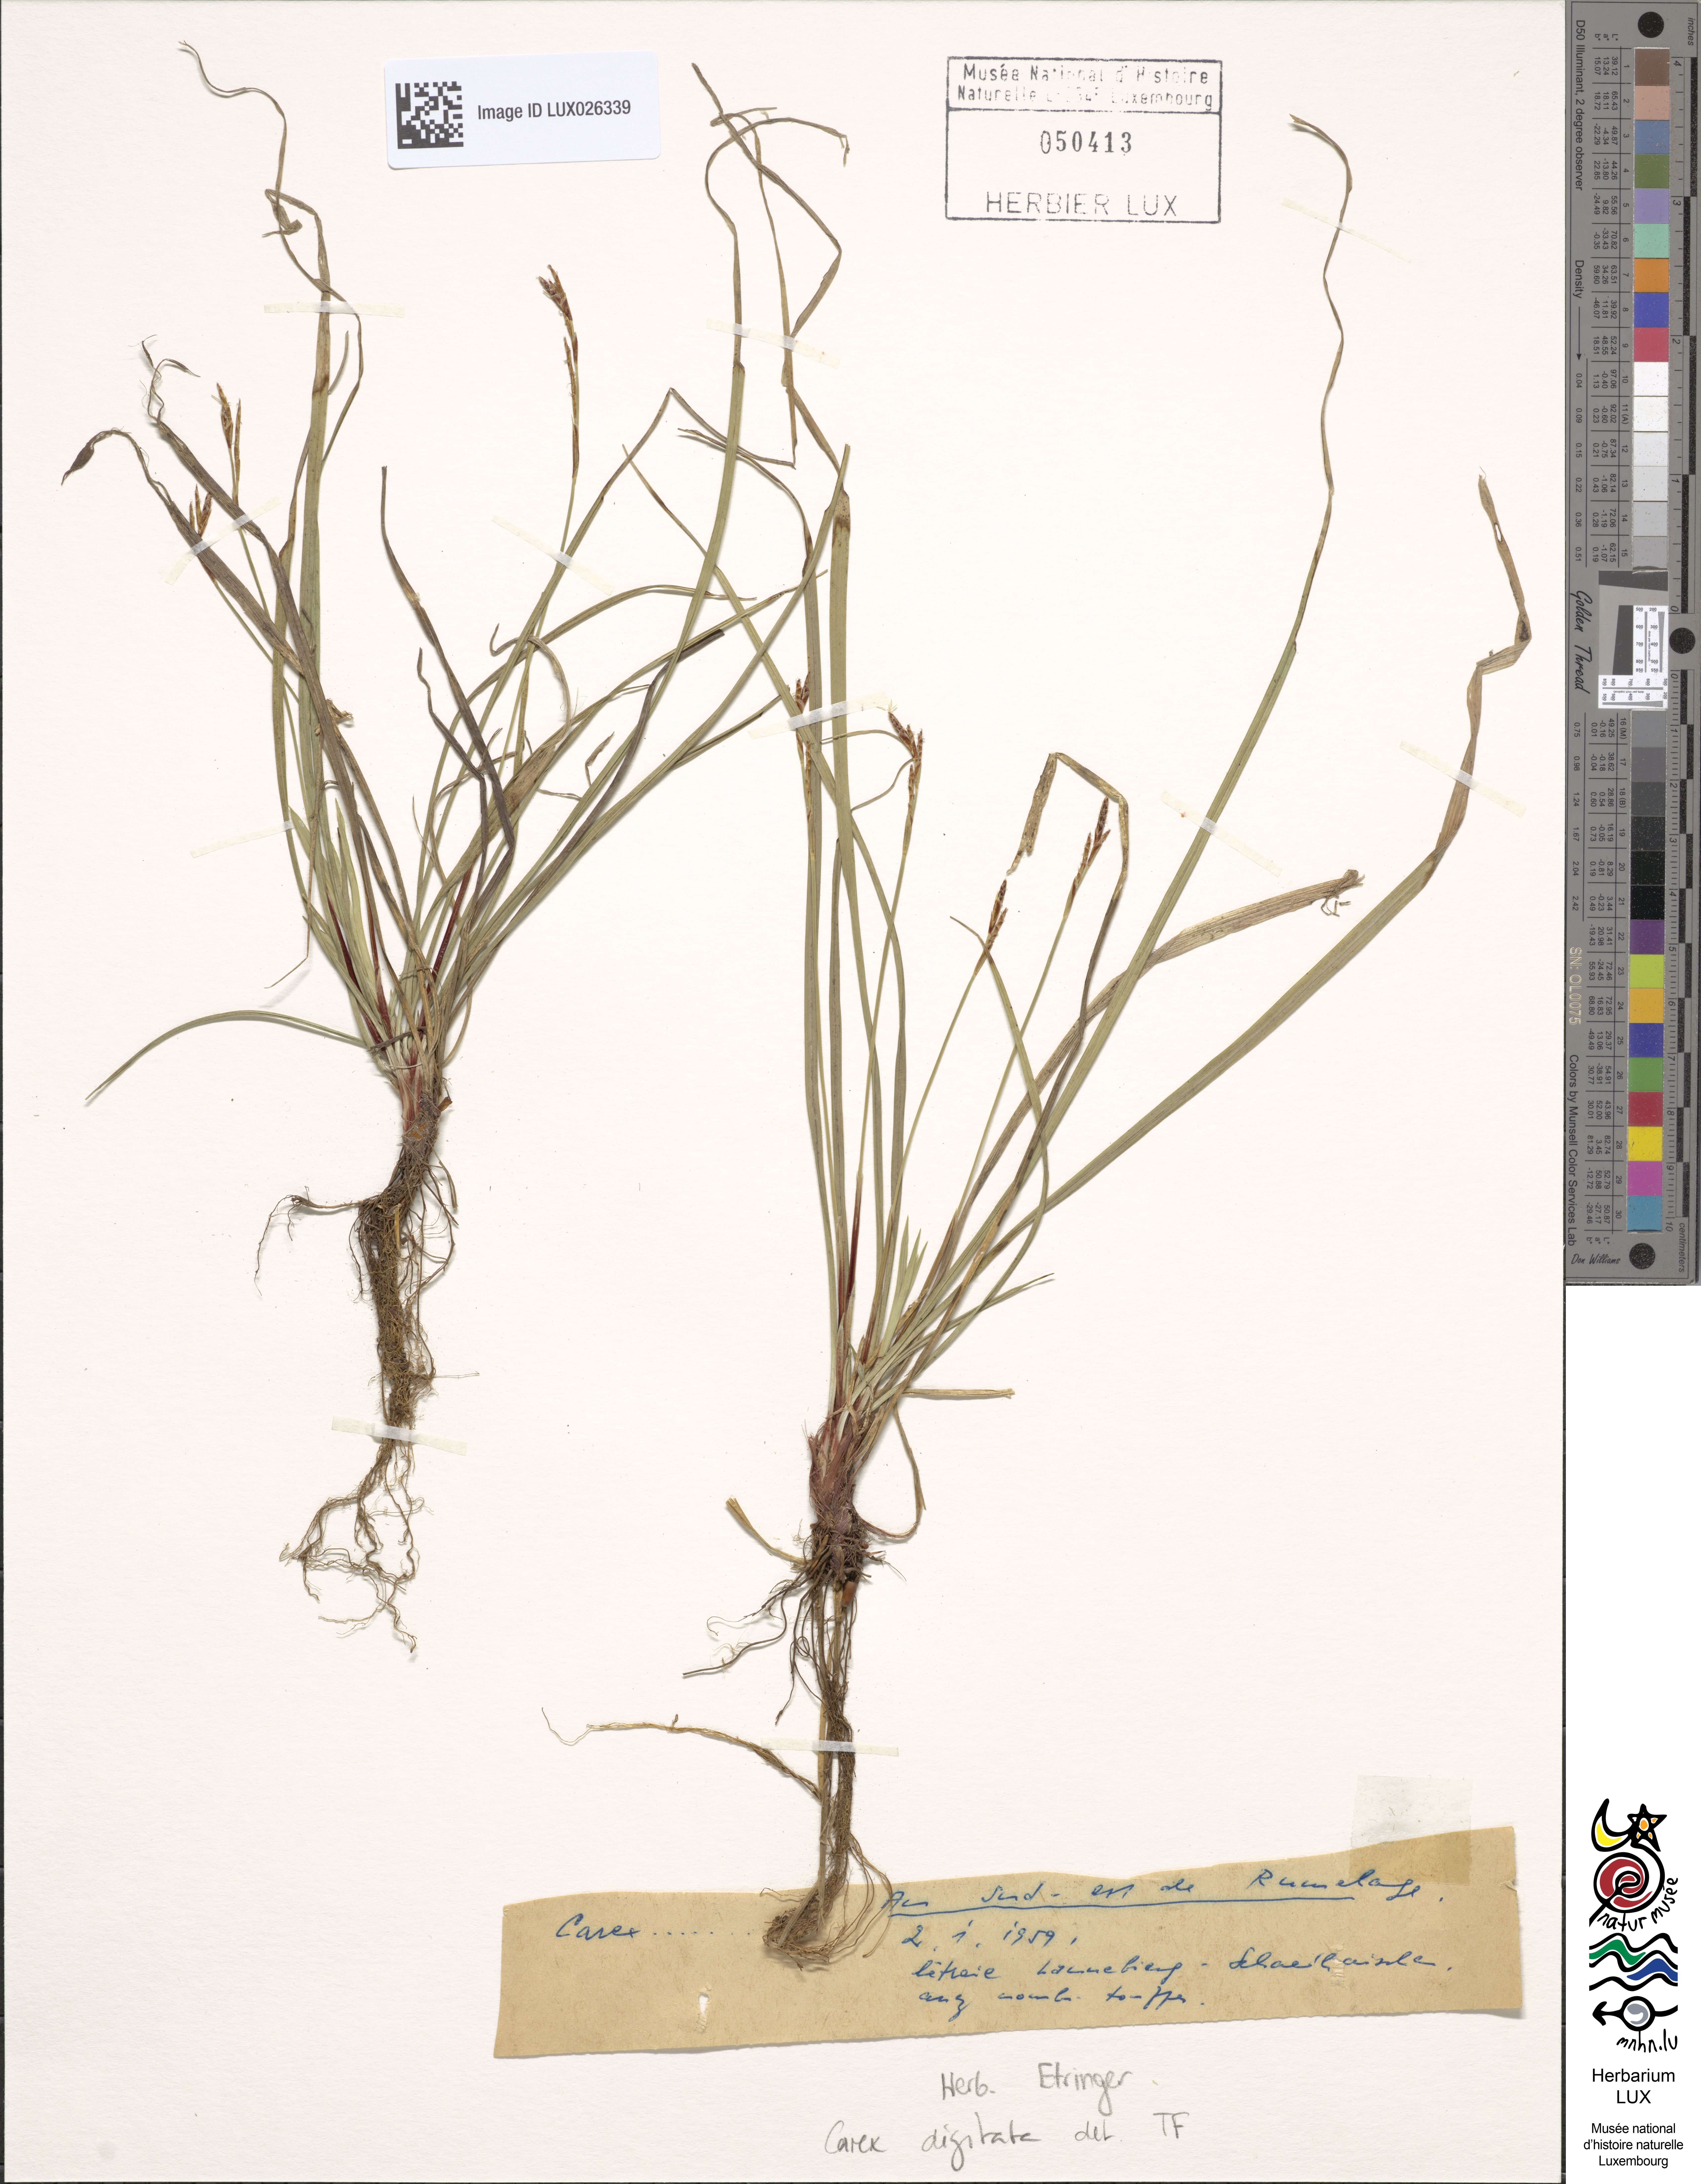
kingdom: Plantae
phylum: Tracheophyta
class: Liliopsida
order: Poales
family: Cyperaceae
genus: Carex
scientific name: Carex digitata
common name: Fingered sedge
